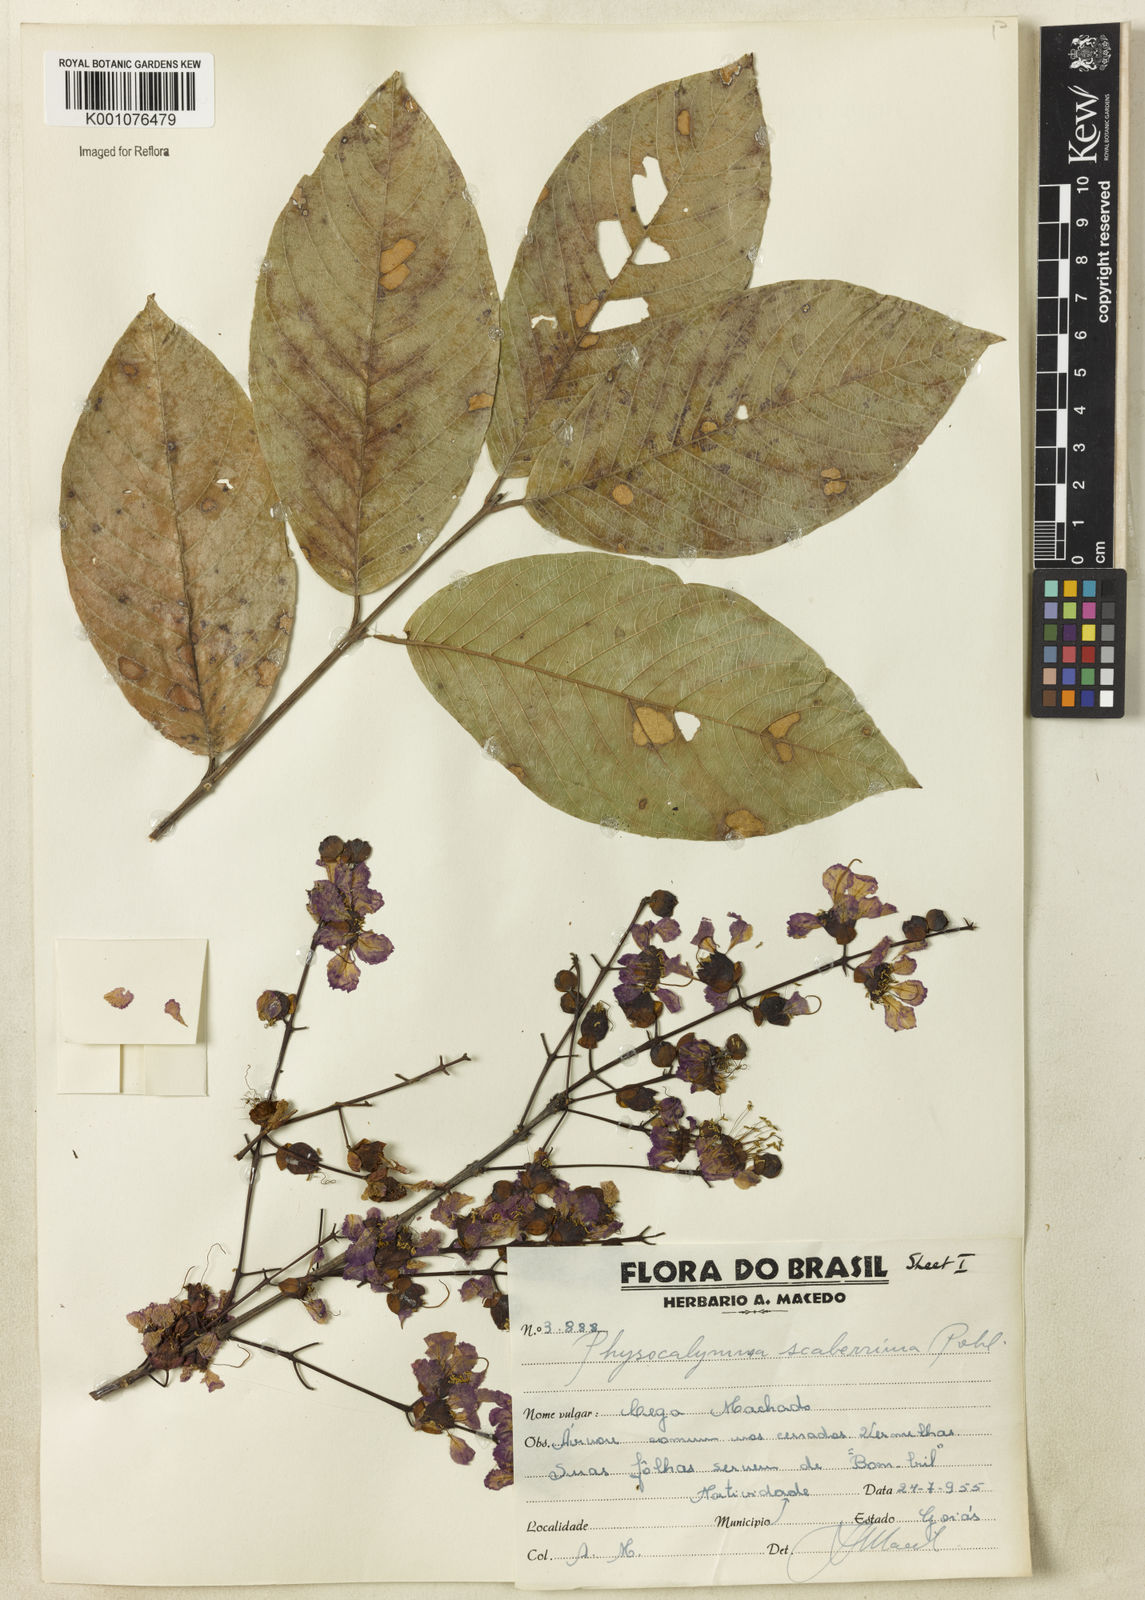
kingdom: Plantae
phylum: Tracheophyta
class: Magnoliopsida
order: Myrtales
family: Lythraceae
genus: Physocalymma
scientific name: Physocalymma scaberrimum
